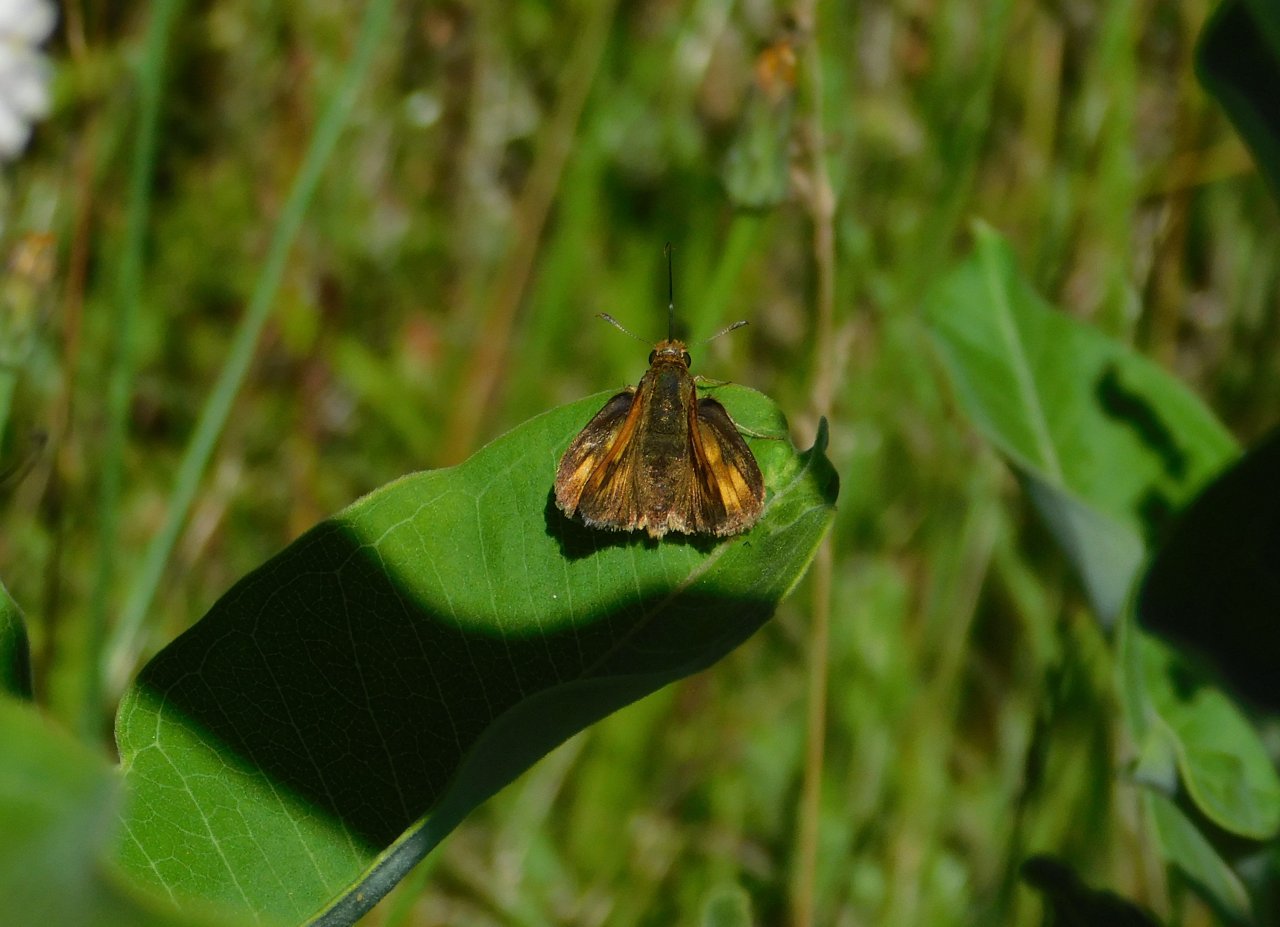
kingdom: Animalia
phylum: Arthropoda
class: Insecta
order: Lepidoptera
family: Hesperiidae
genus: Polites
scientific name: Polites
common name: Long Dash Skipper
